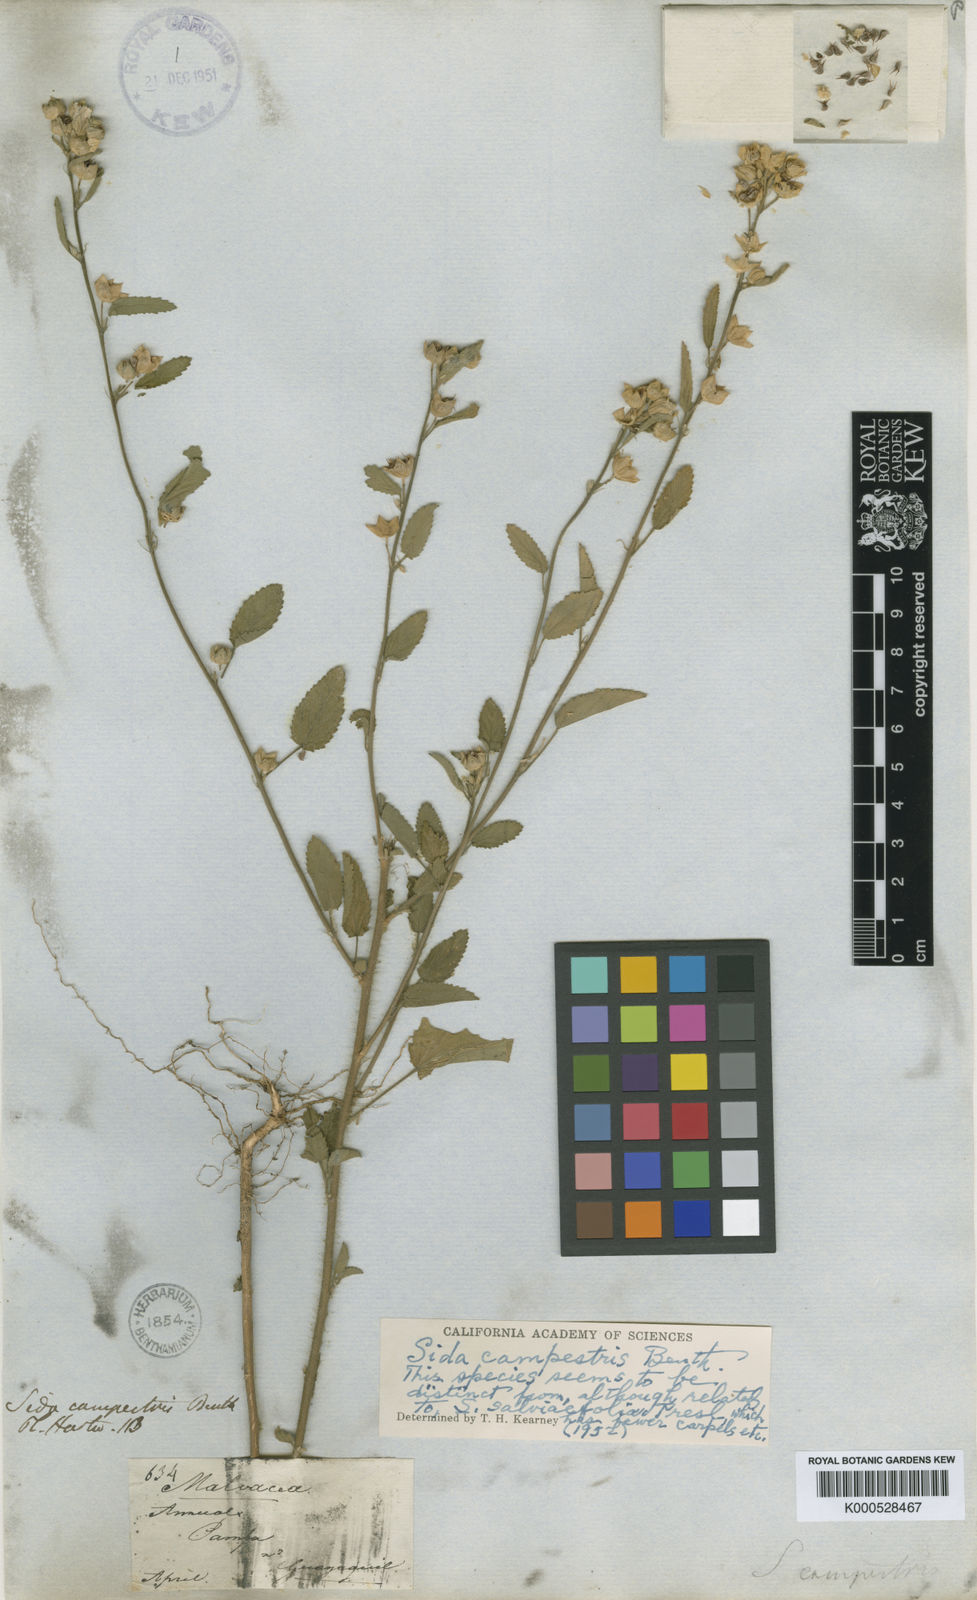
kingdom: Plantae
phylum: Tracheophyta
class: Magnoliopsida
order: Malvales
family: Malvaceae
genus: Sida
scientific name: Sida salviifolia
